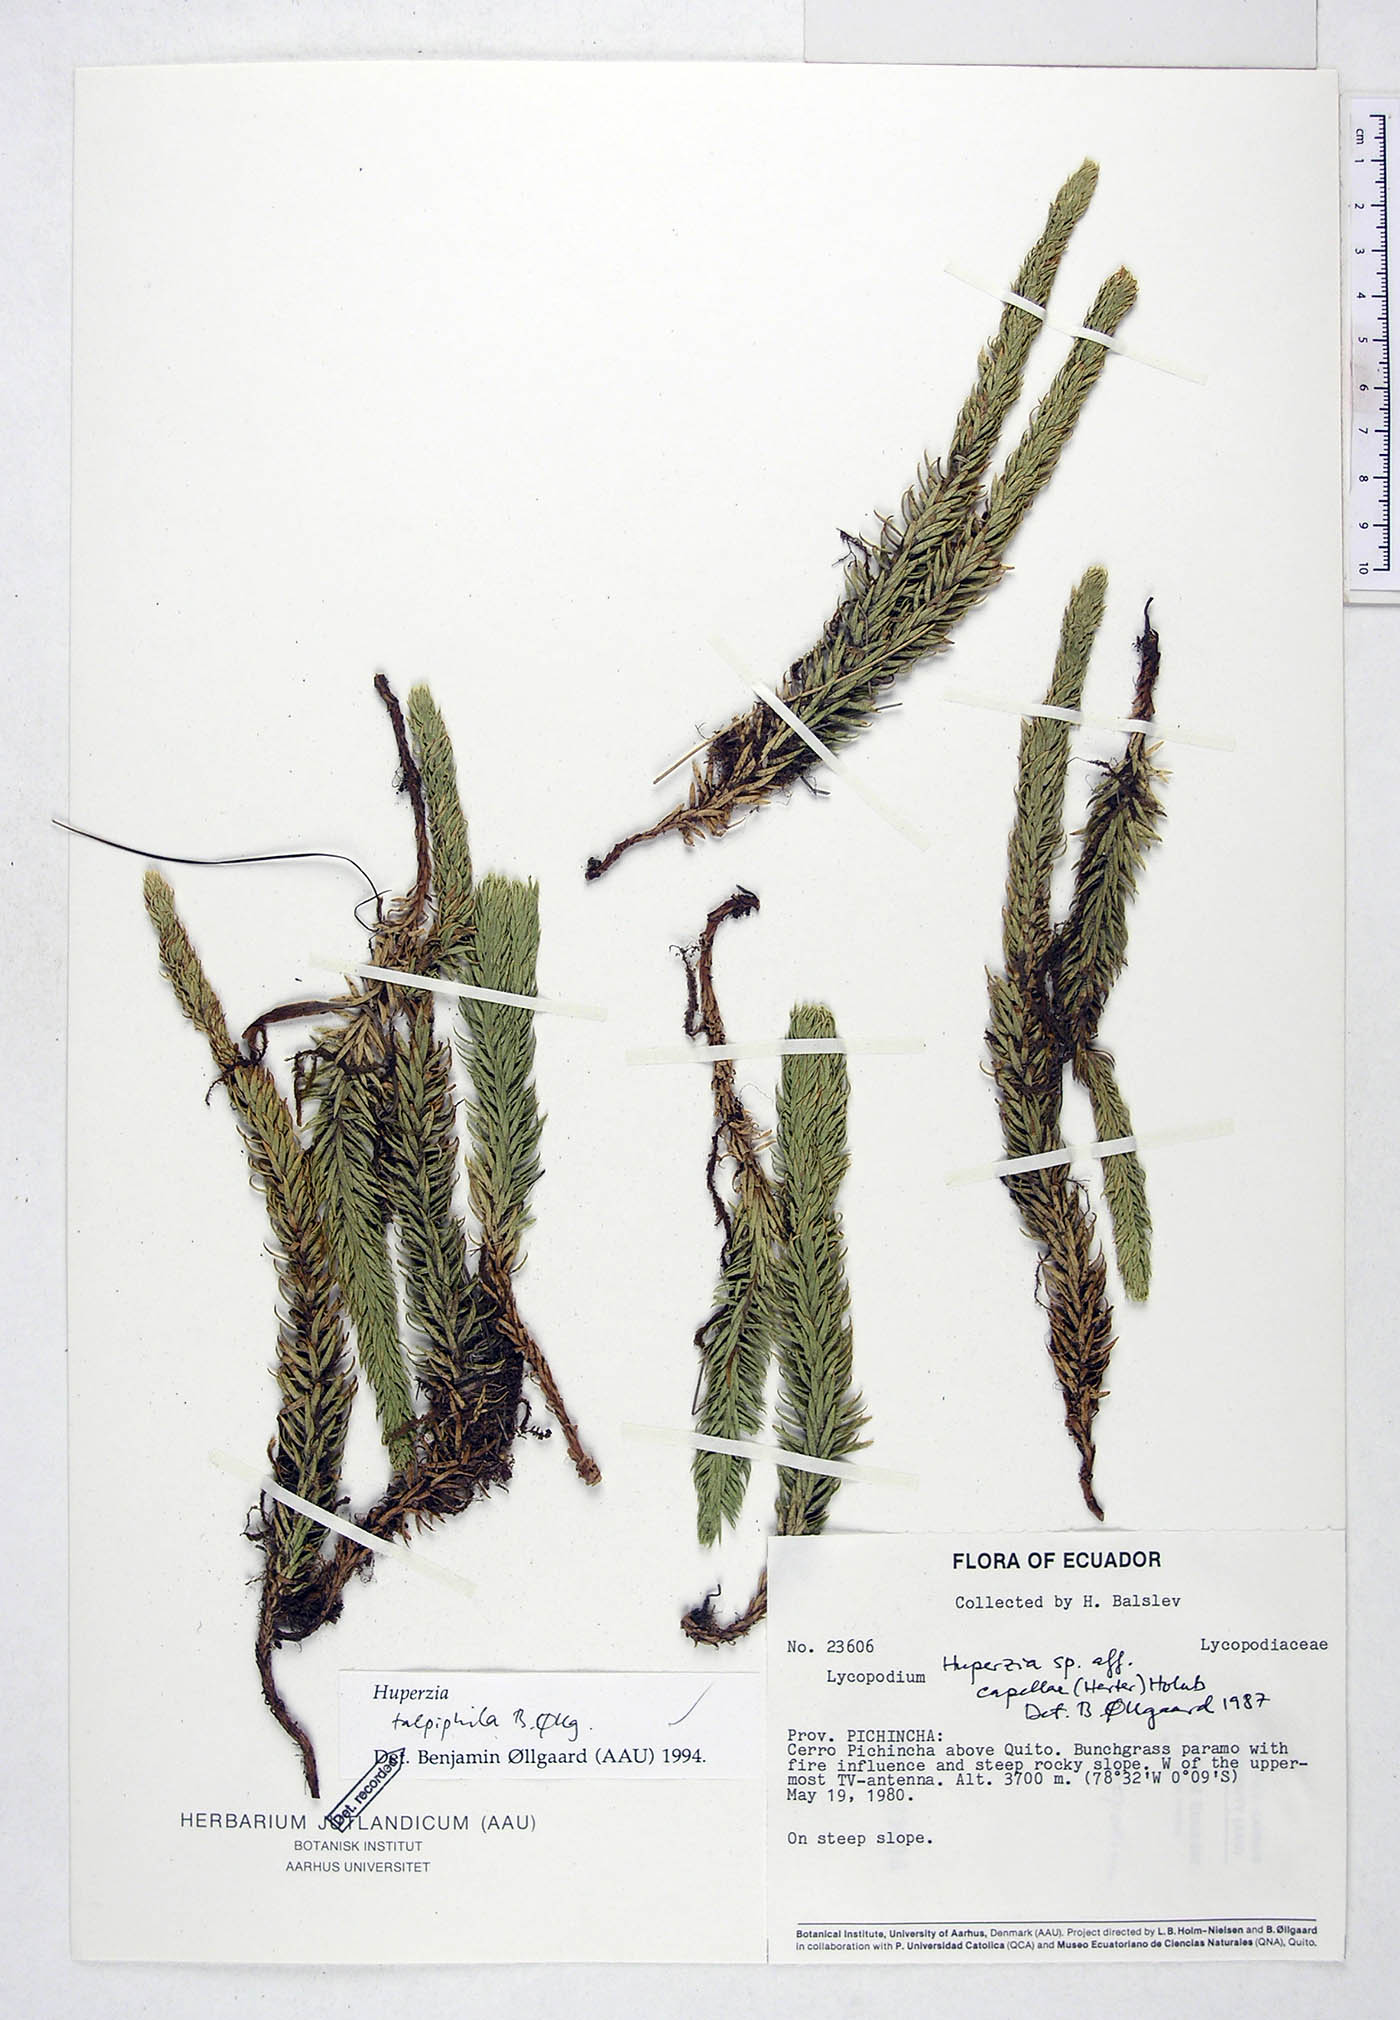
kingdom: Plantae
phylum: Tracheophyta
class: Lycopodiopsida
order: Lycopodiales
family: Lycopodiaceae
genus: Phlegmariurus
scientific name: Phlegmariurus talpiphilus
